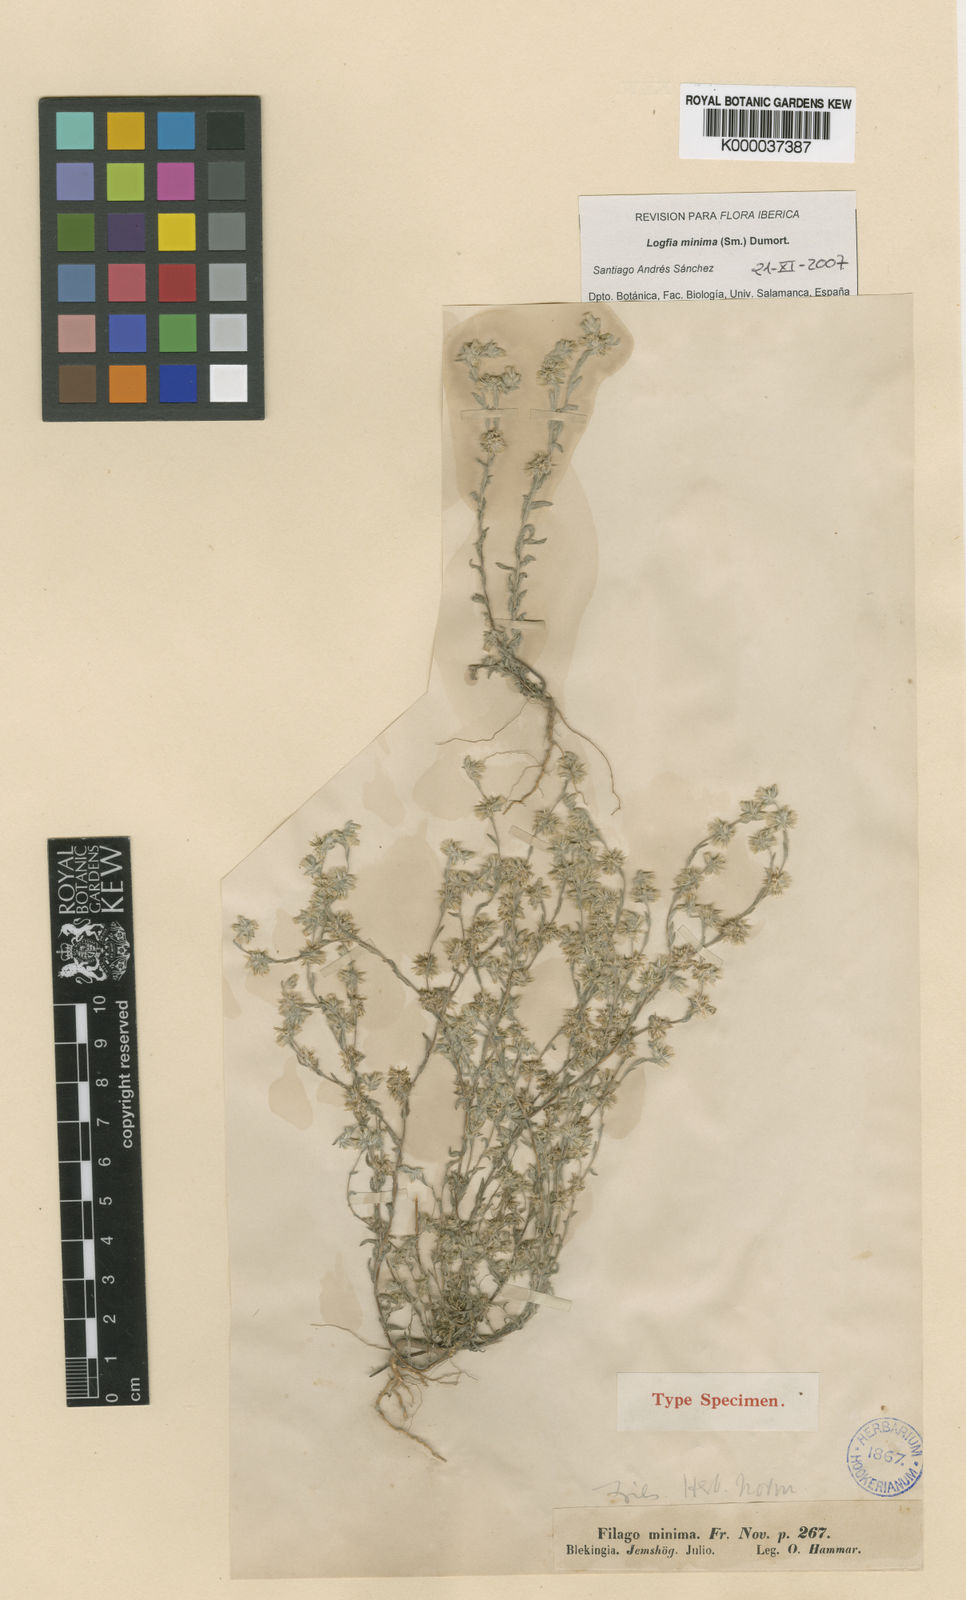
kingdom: Plantae
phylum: Tracheophyta
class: Magnoliopsida
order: Asterales
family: Asteraceae
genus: Logfia
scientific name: Logfia minima
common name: Little cottonrose
